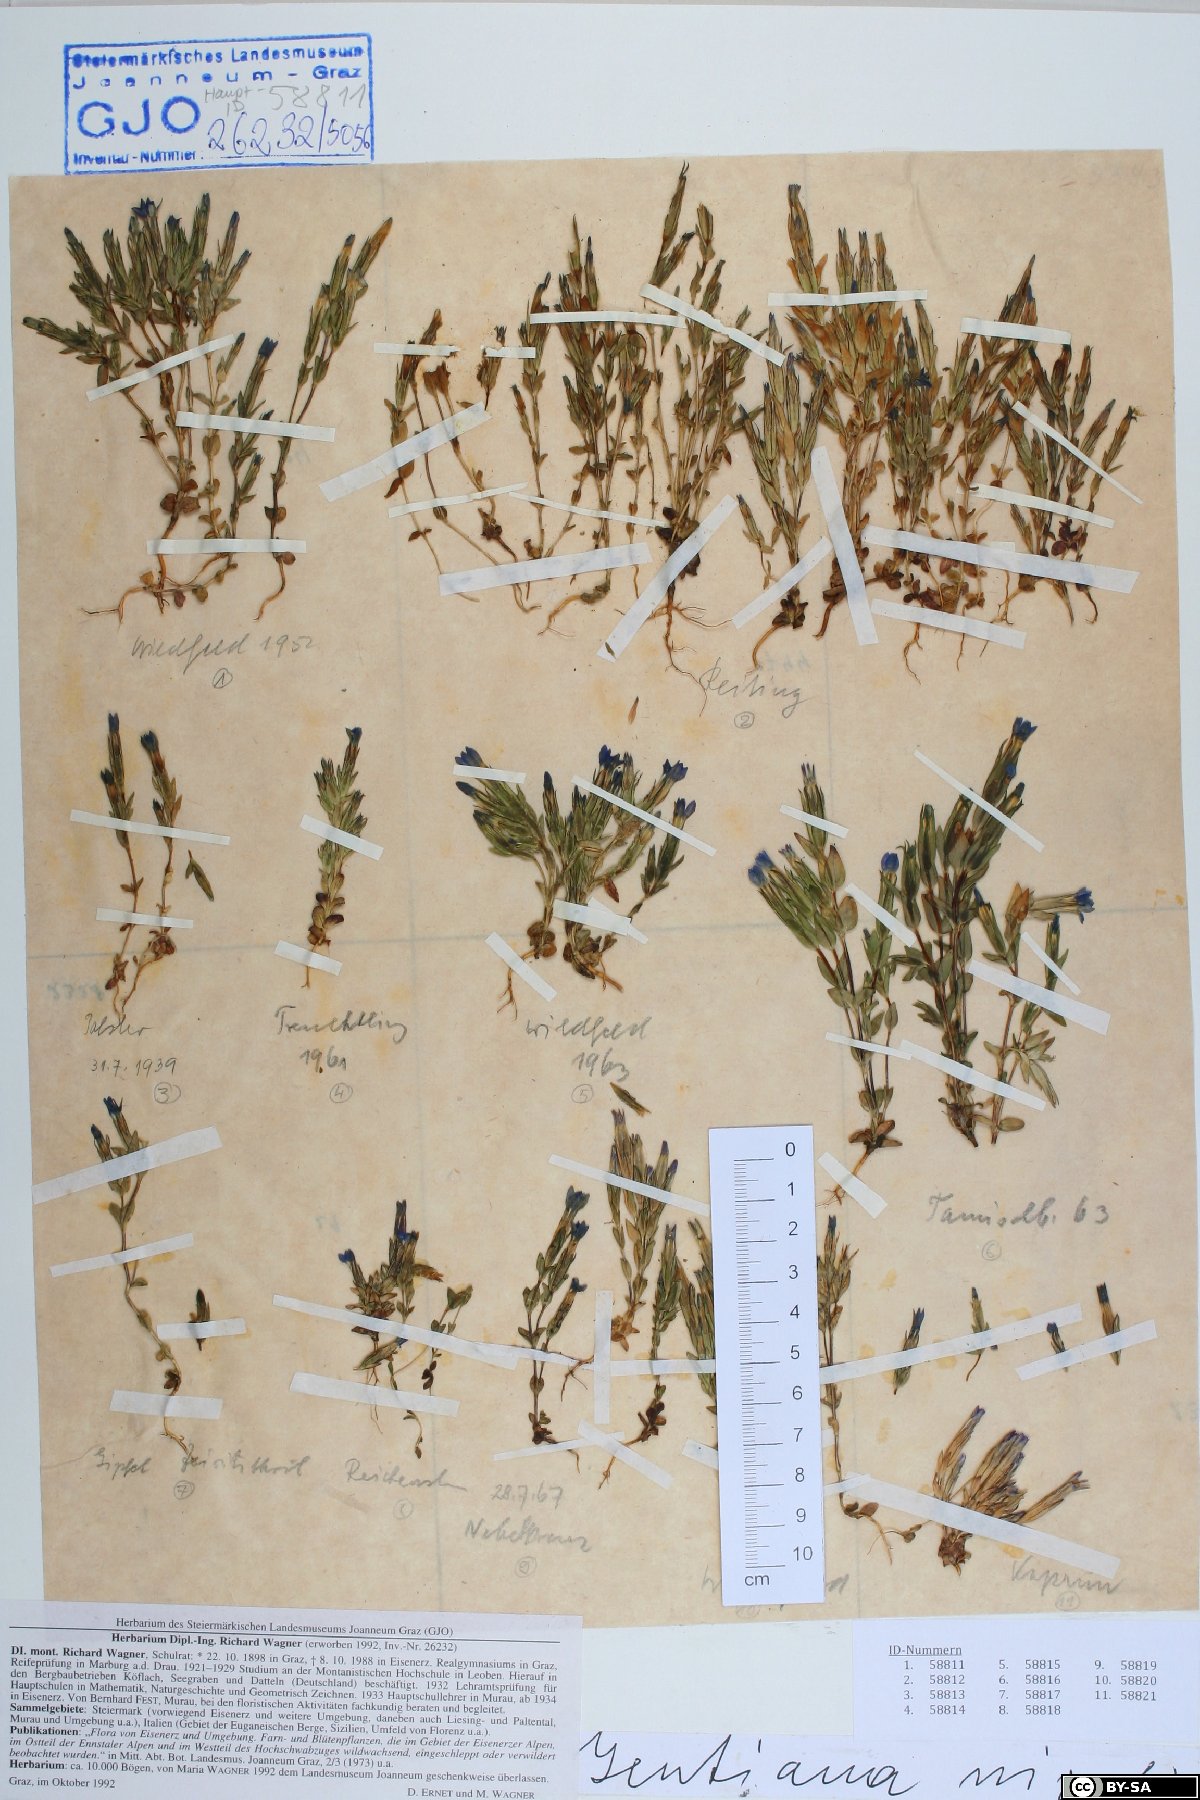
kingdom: Plantae
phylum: Tracheophyta
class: Magnoliopsida
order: Gentianales
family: Gentianaceae
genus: Gentiana
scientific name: Gentiana nivalis
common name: Alpine gentian
